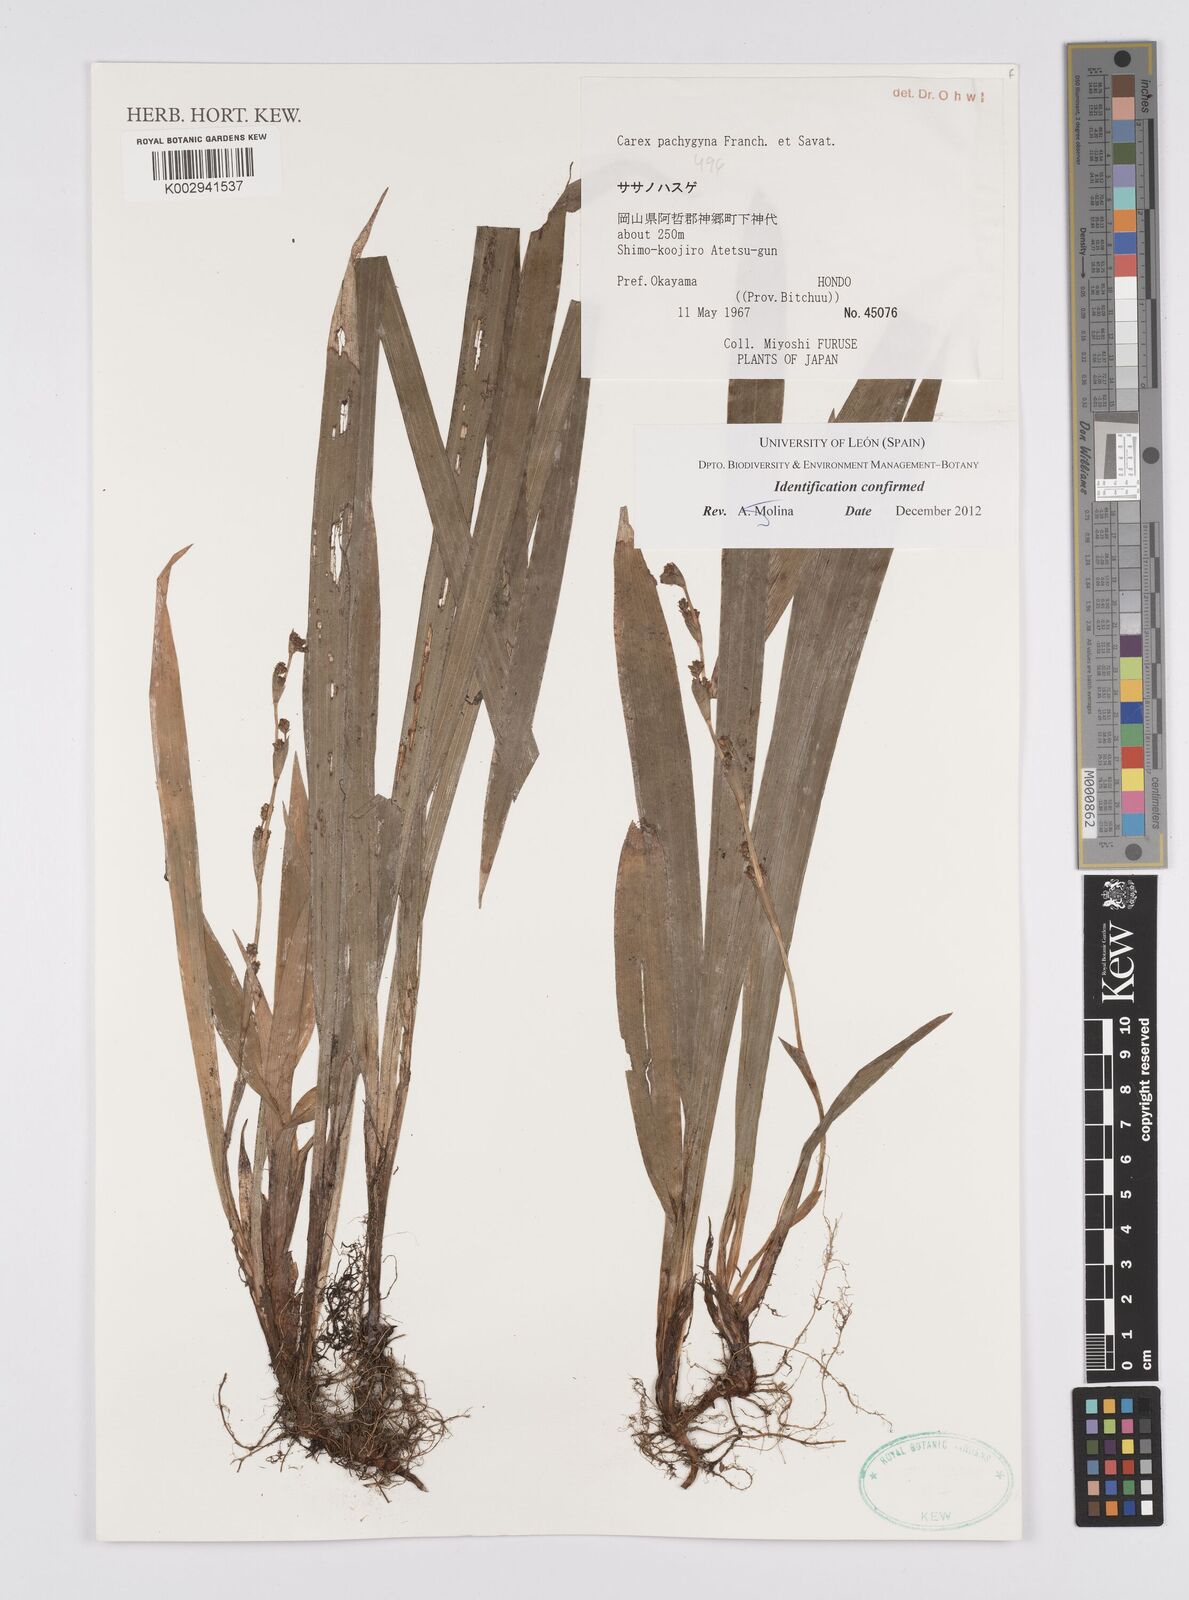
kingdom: Plantae
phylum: Tracheophyta
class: Liliopsida
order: Poales
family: Cyperaceae
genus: Carex
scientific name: Carex pachygyna
